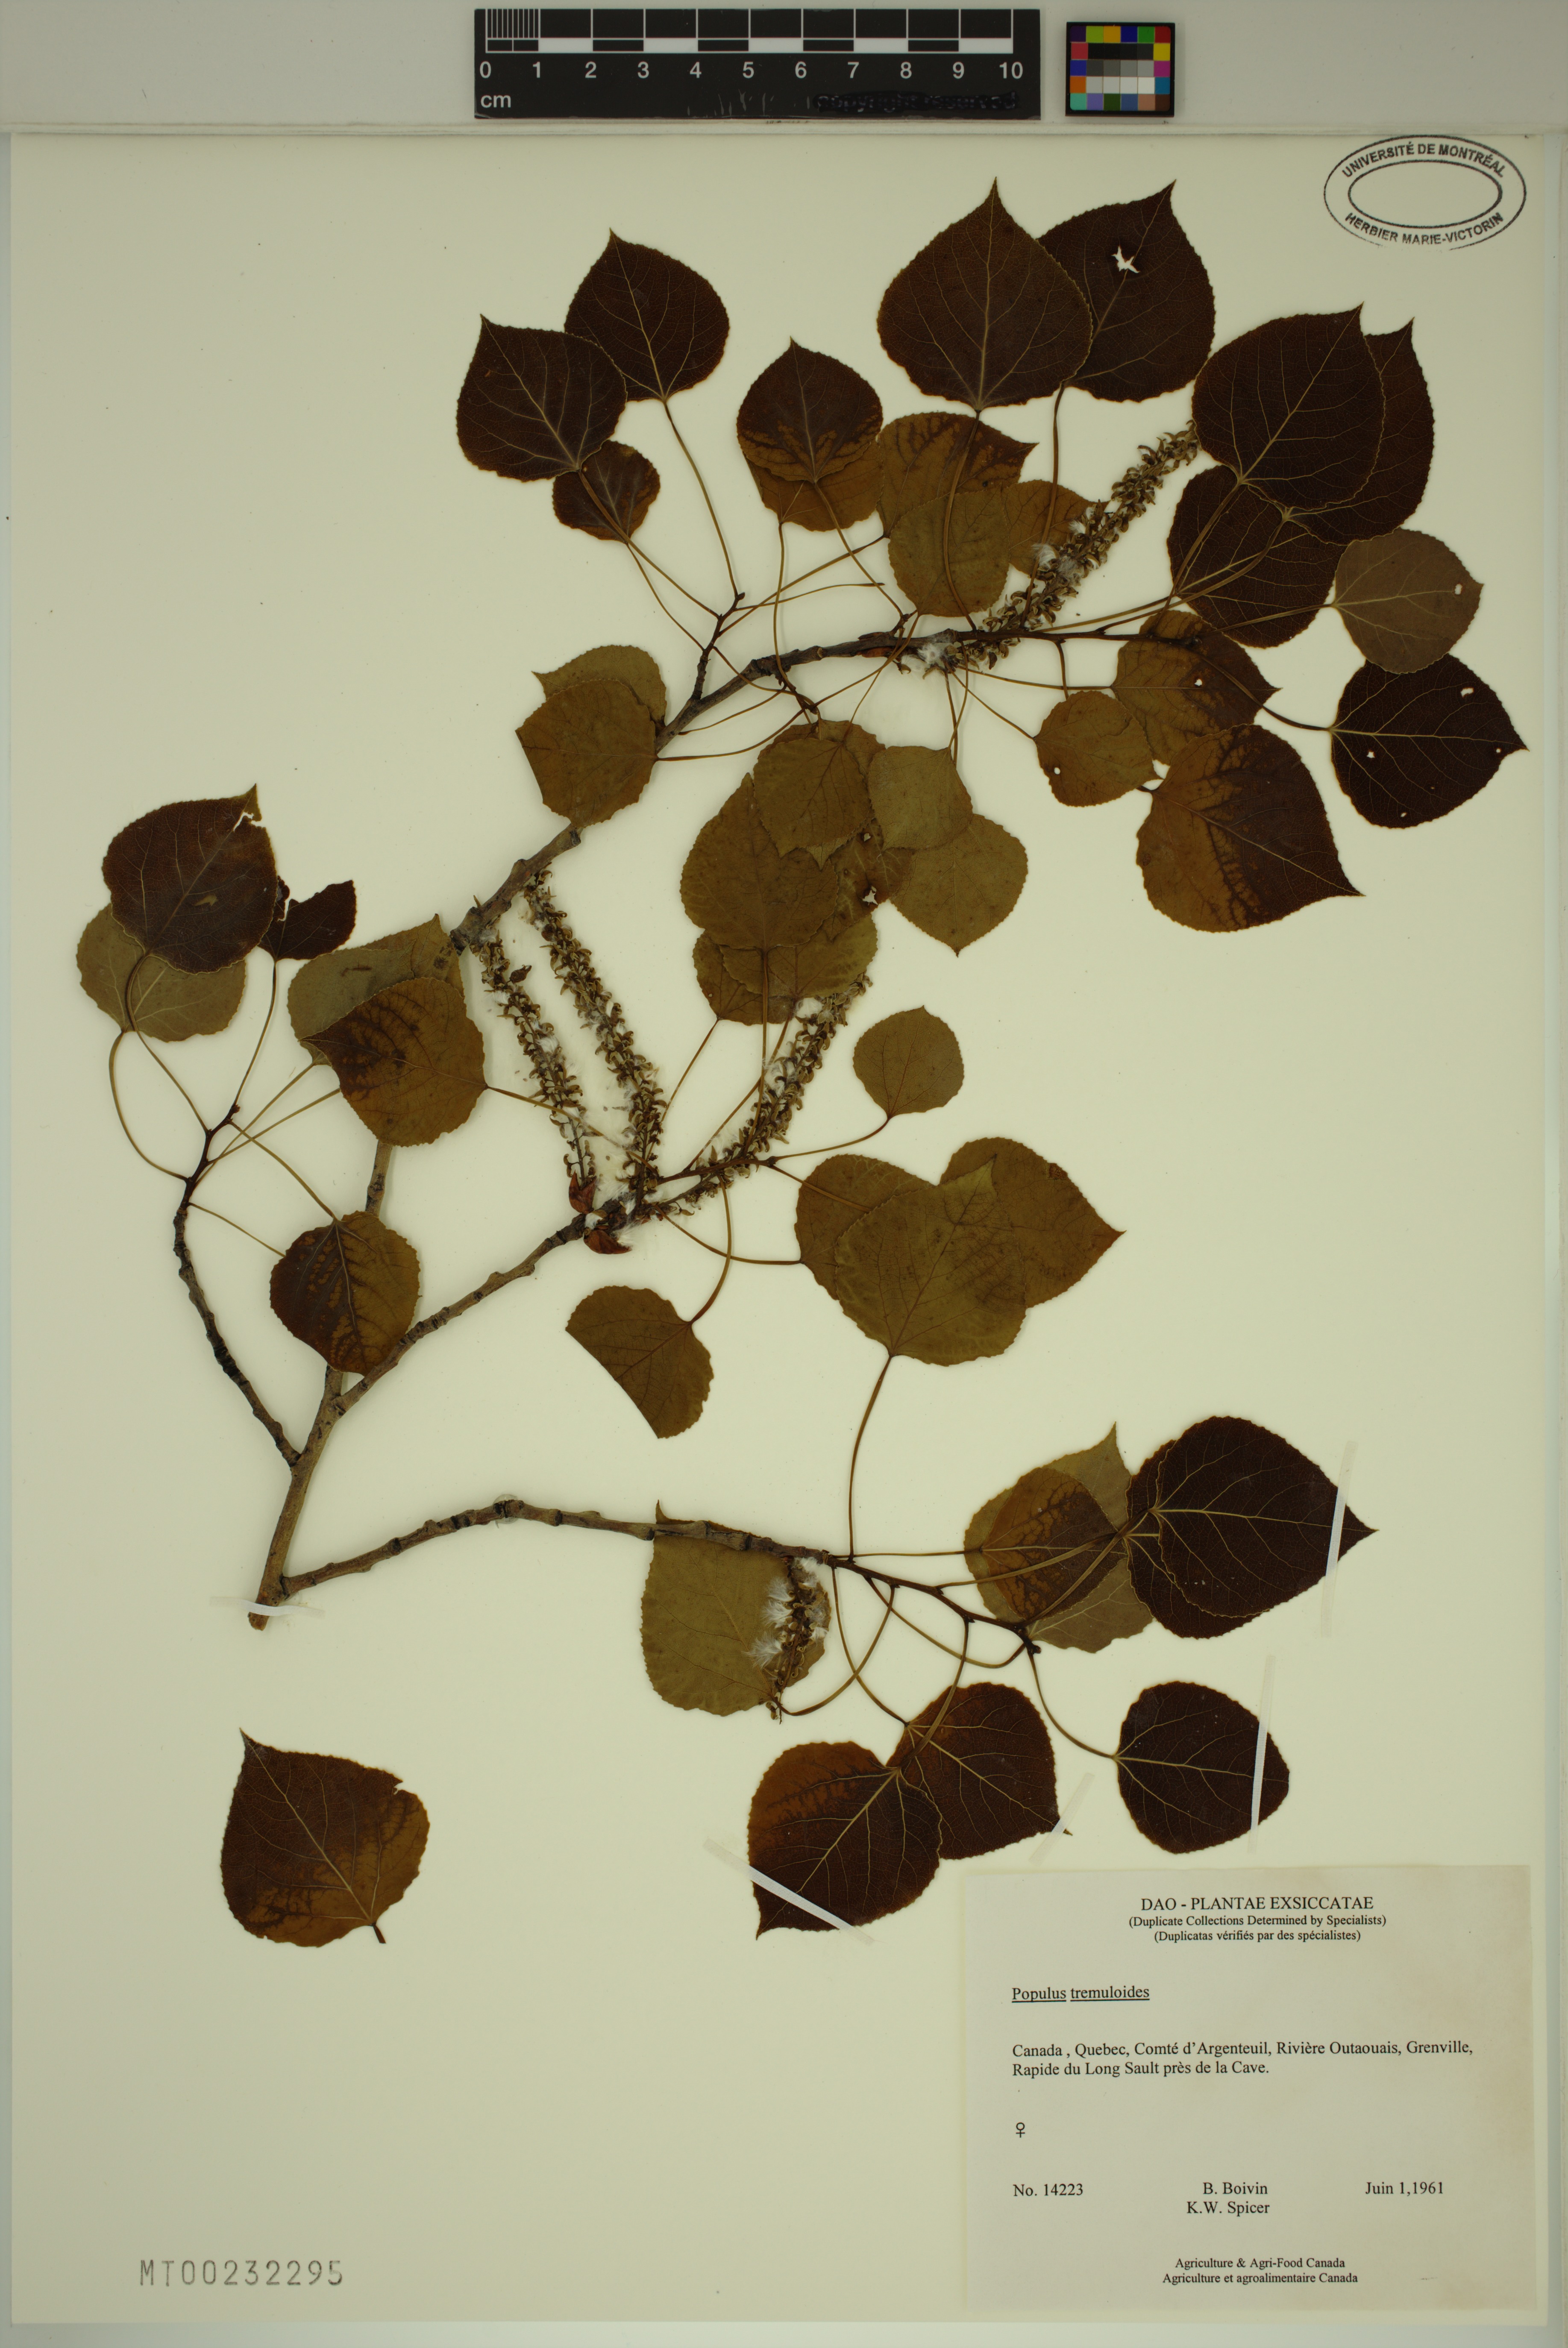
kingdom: Plantae
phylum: Tracheophyta
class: Magnoliopsida
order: Malpighiales
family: Salicaceae
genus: Populus
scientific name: Populus tremuloides
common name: Quaking aspen
